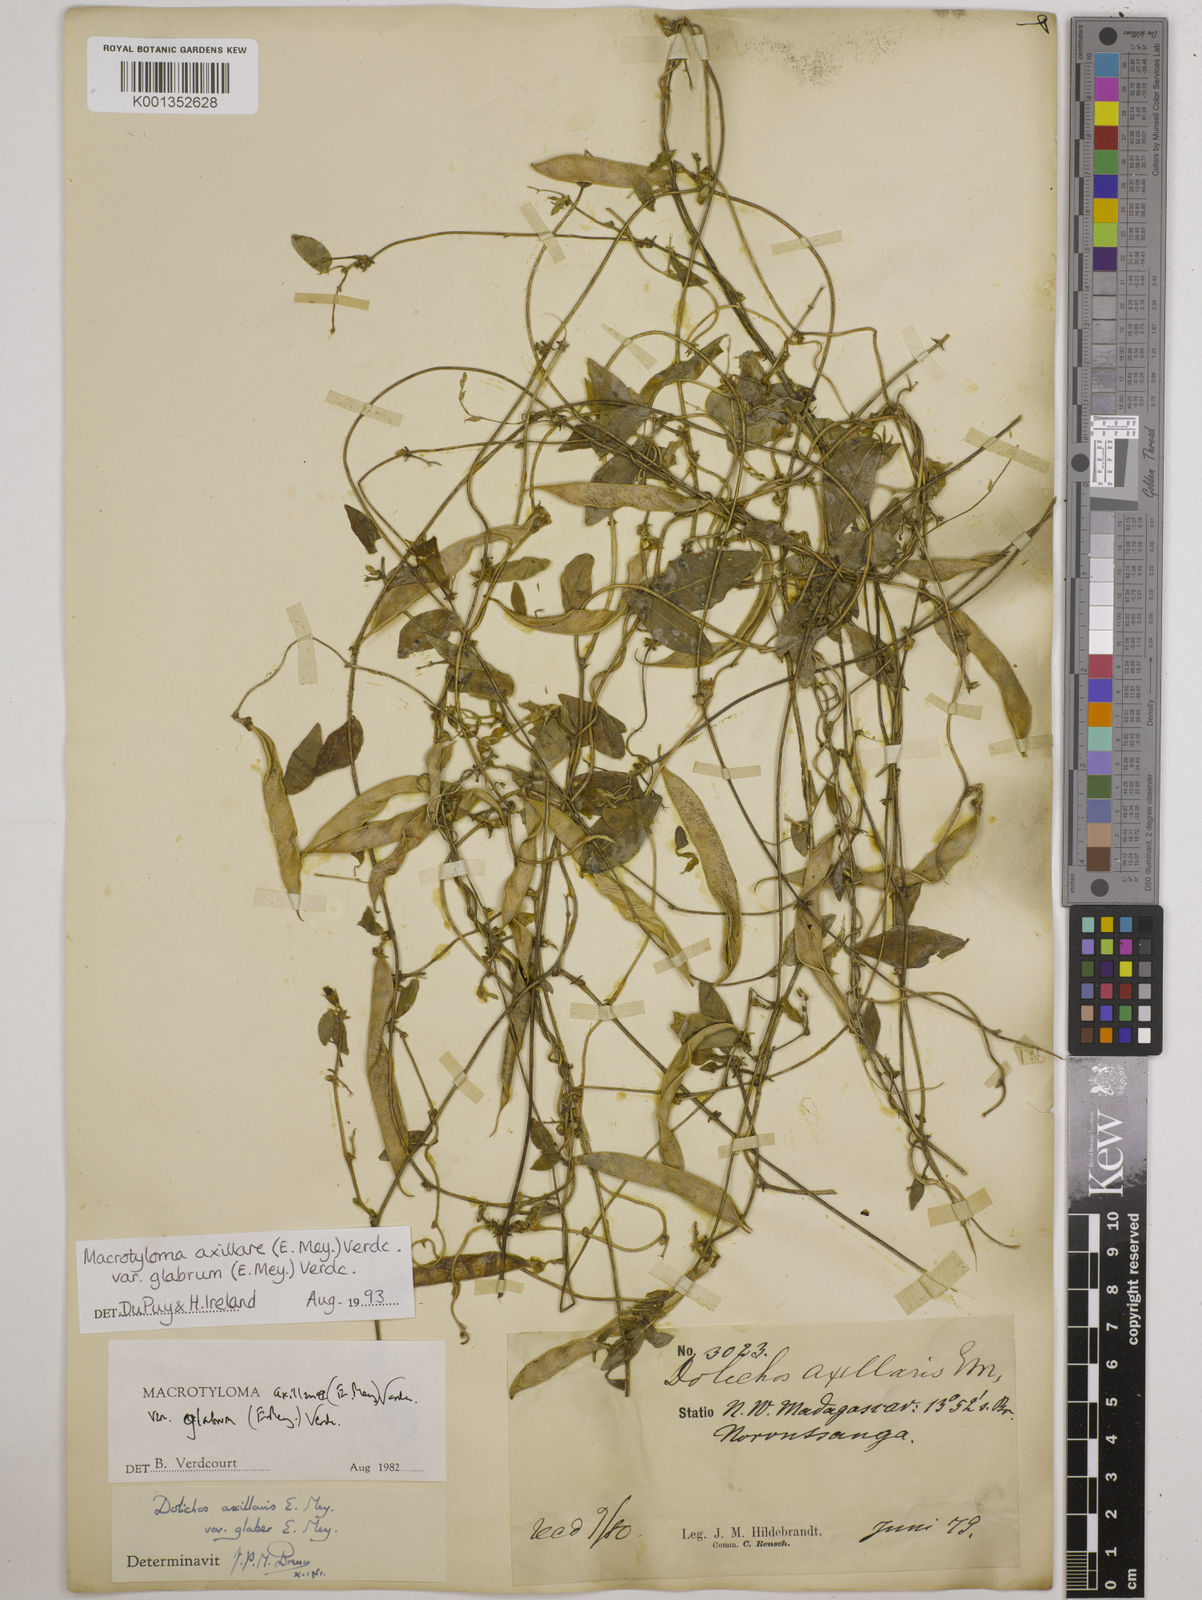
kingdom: Plantae
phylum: Tracheophyta
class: Magnoliopsida
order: Fabales
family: Fabaceae
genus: Macrotyloma
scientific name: Macrotyloma
